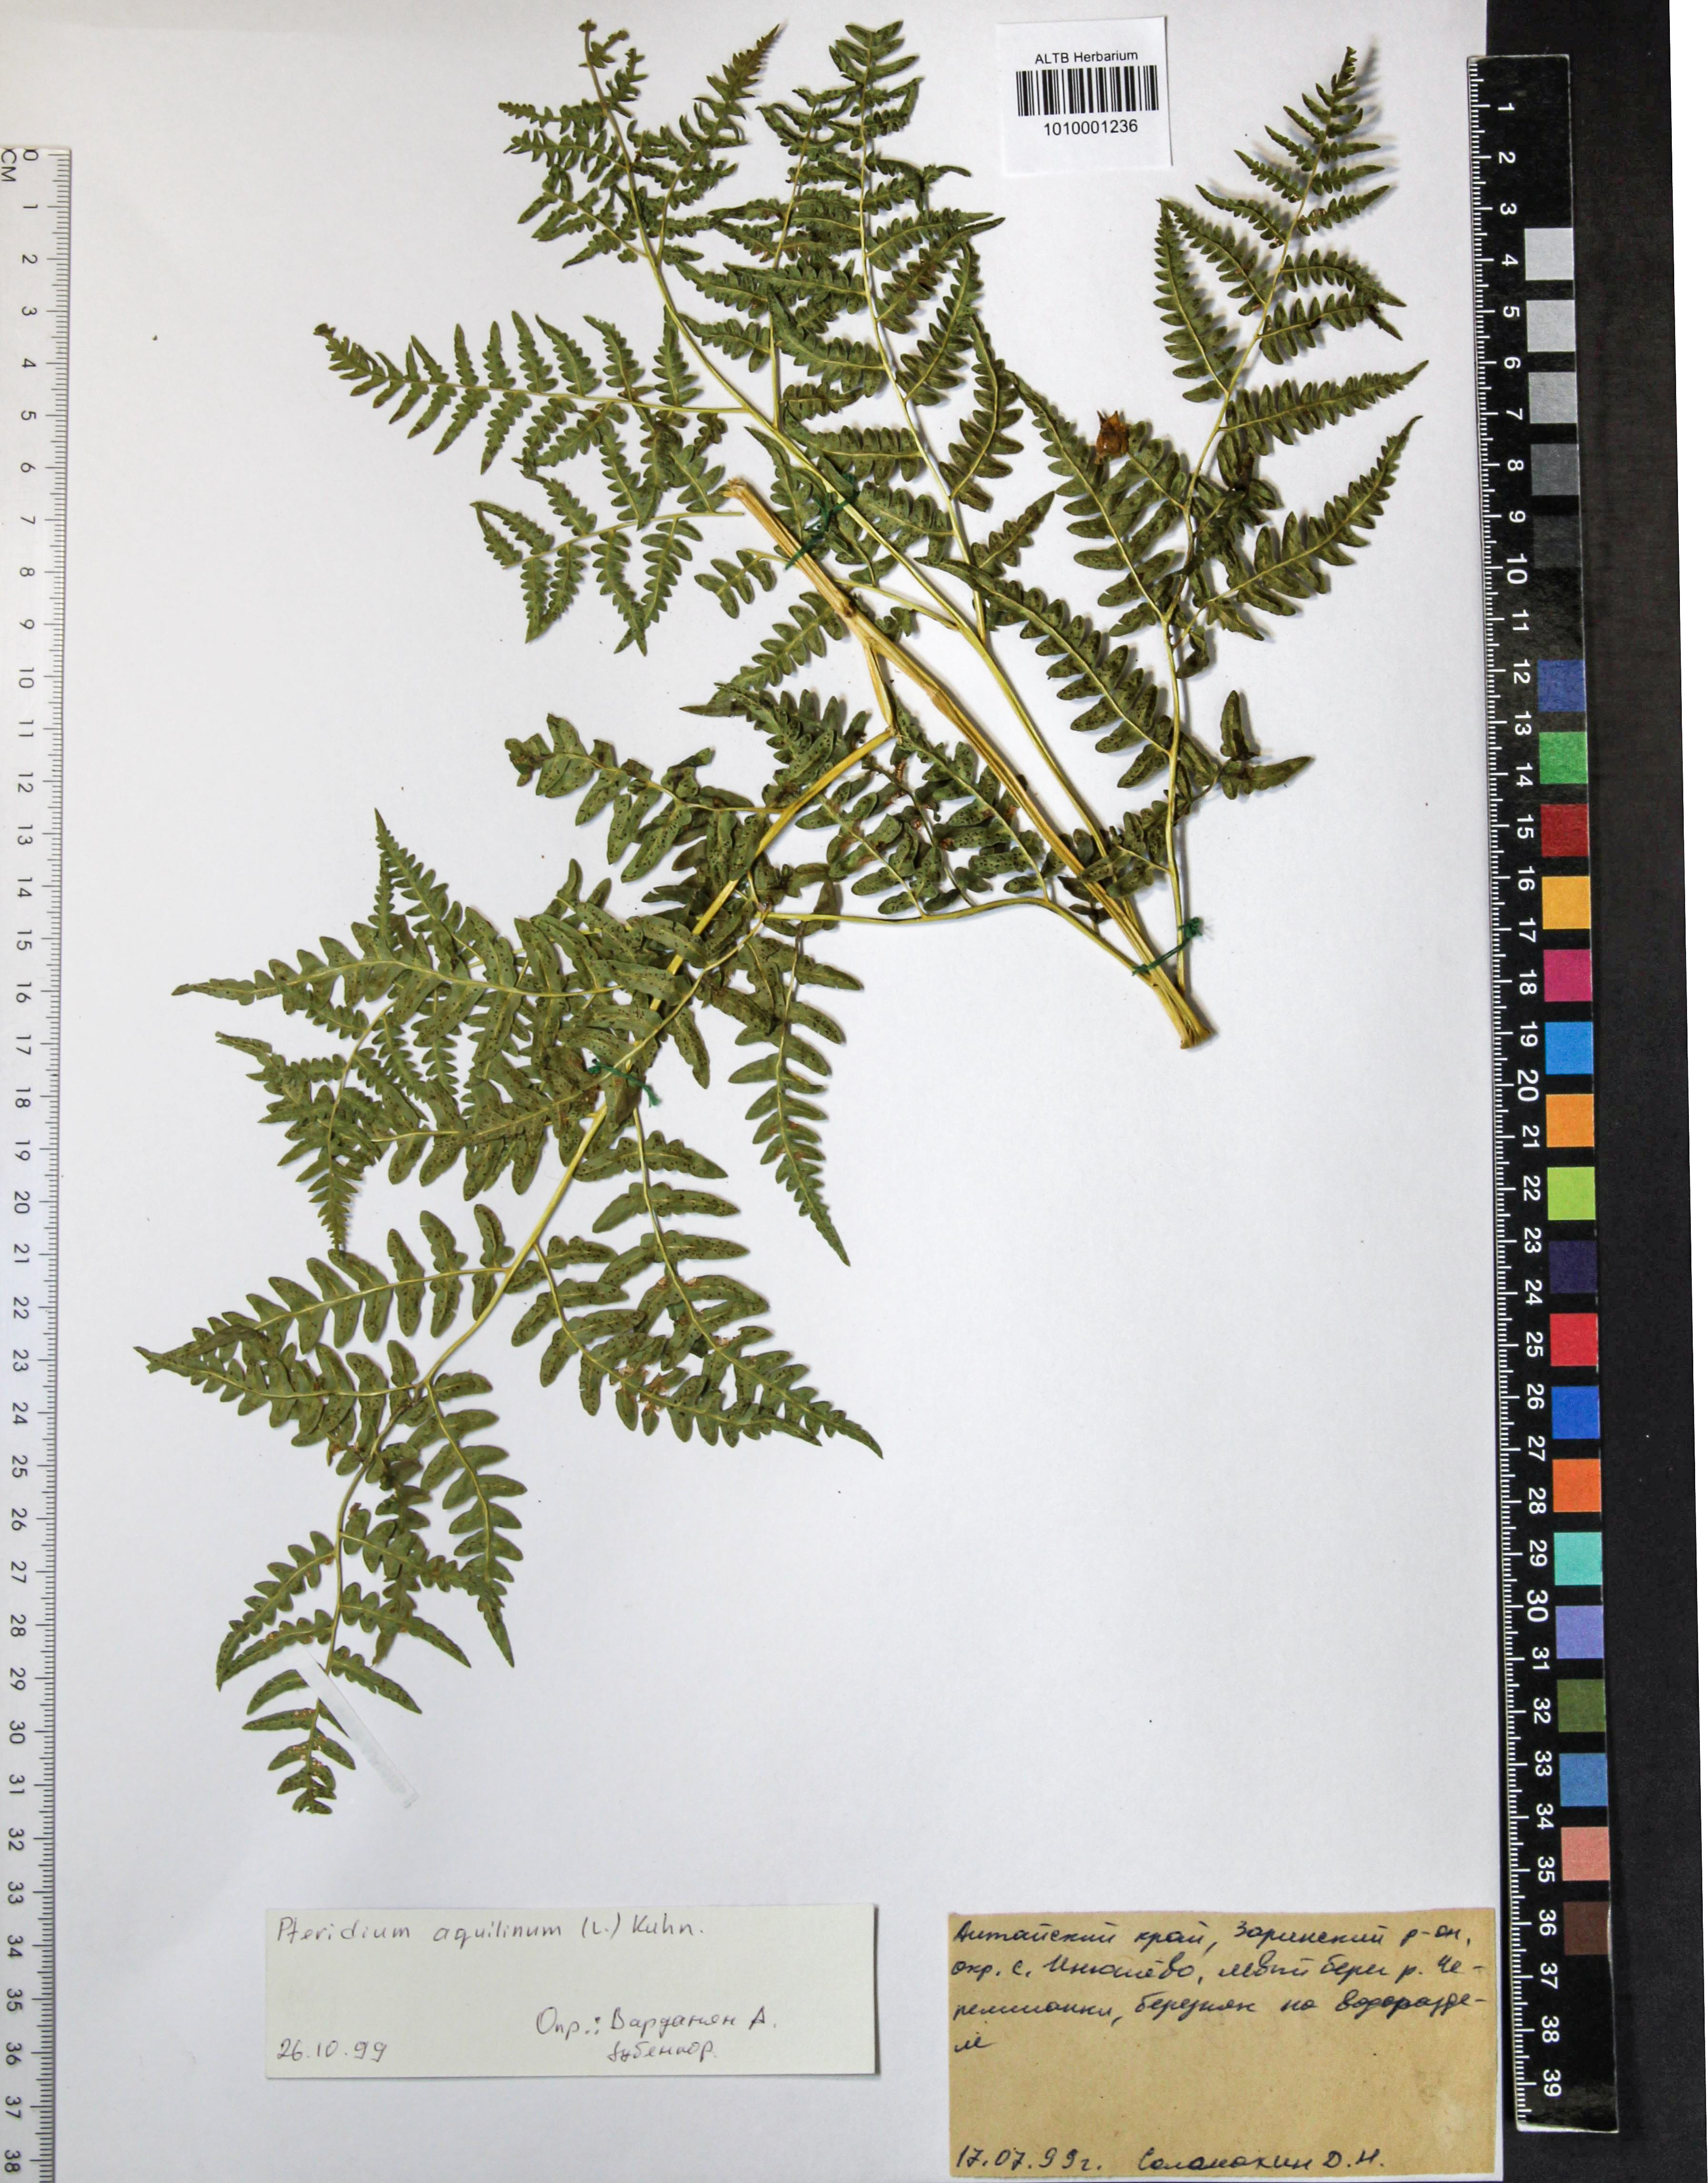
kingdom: Plantae
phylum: Tracheophyta
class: Polypodiopsida
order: Polypodiales
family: Dennstaedtiaceae
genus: Pteridium
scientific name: Pteridium aquilinum
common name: Bracken
